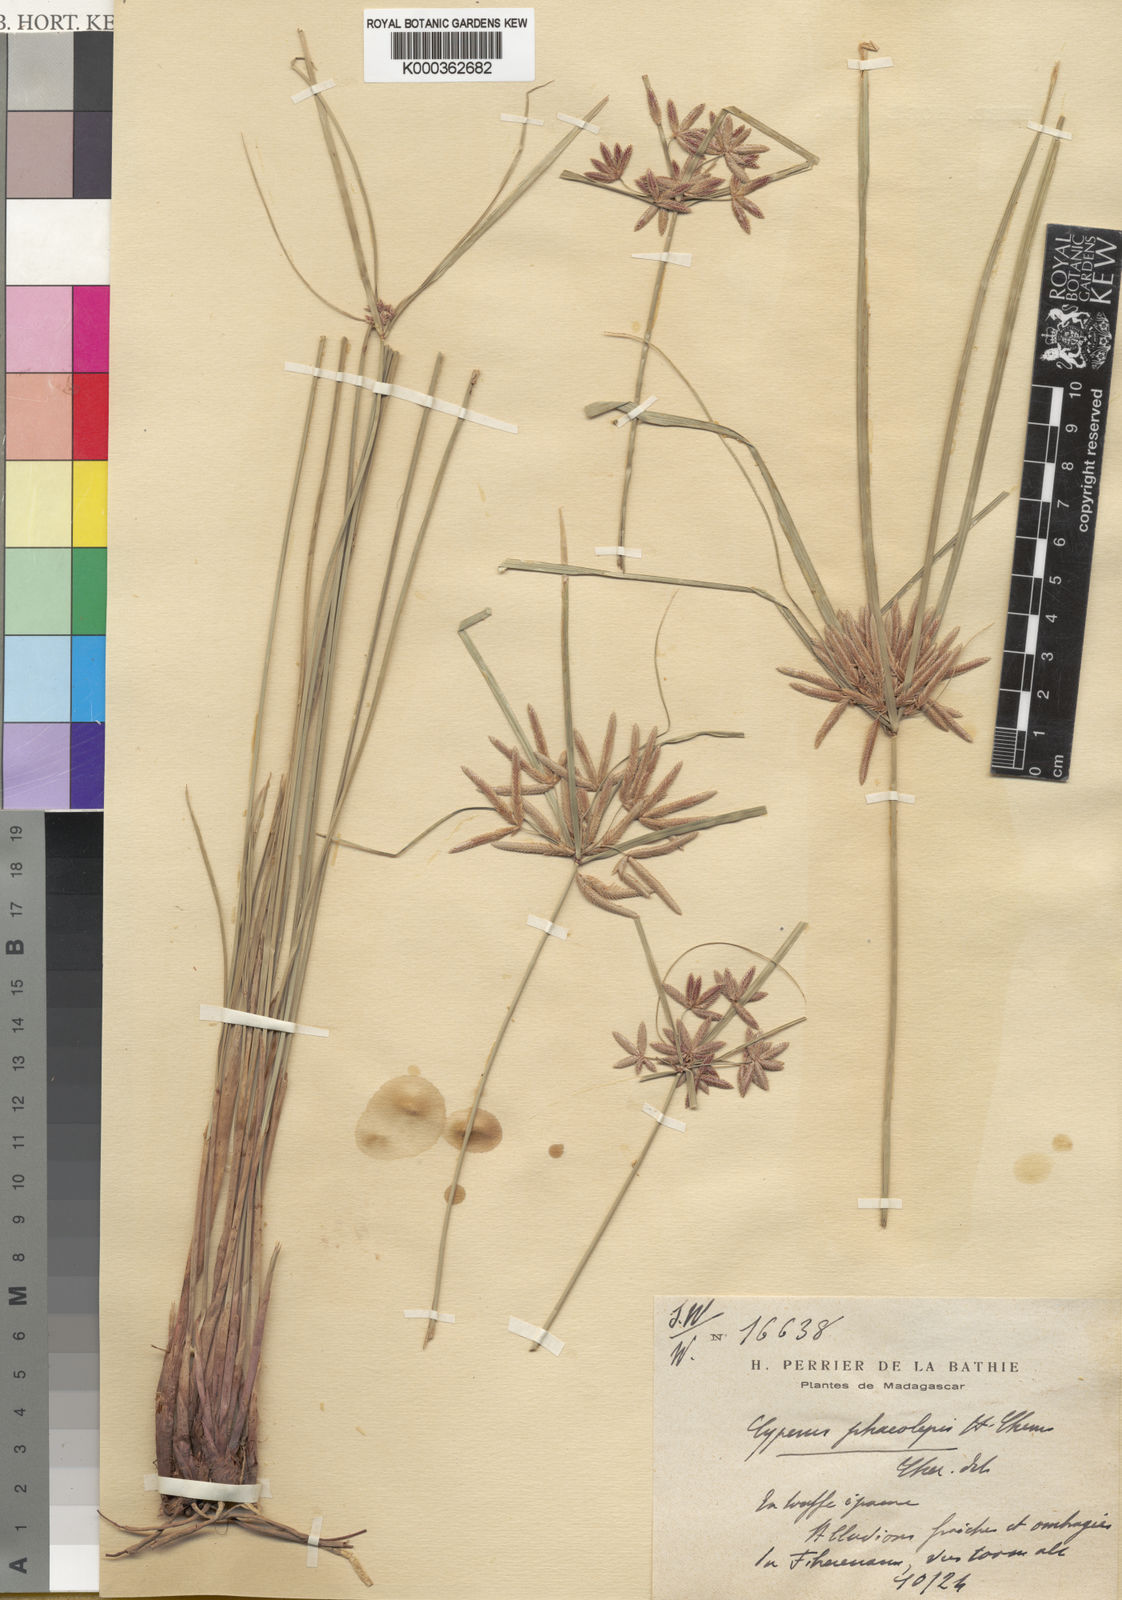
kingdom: Plantae
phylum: Tracheophyta
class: Liliopsida
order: Poales
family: Cyperaceae
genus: Cyperus
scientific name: Cyperus phaeolepis
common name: Madagascar flatsedge
